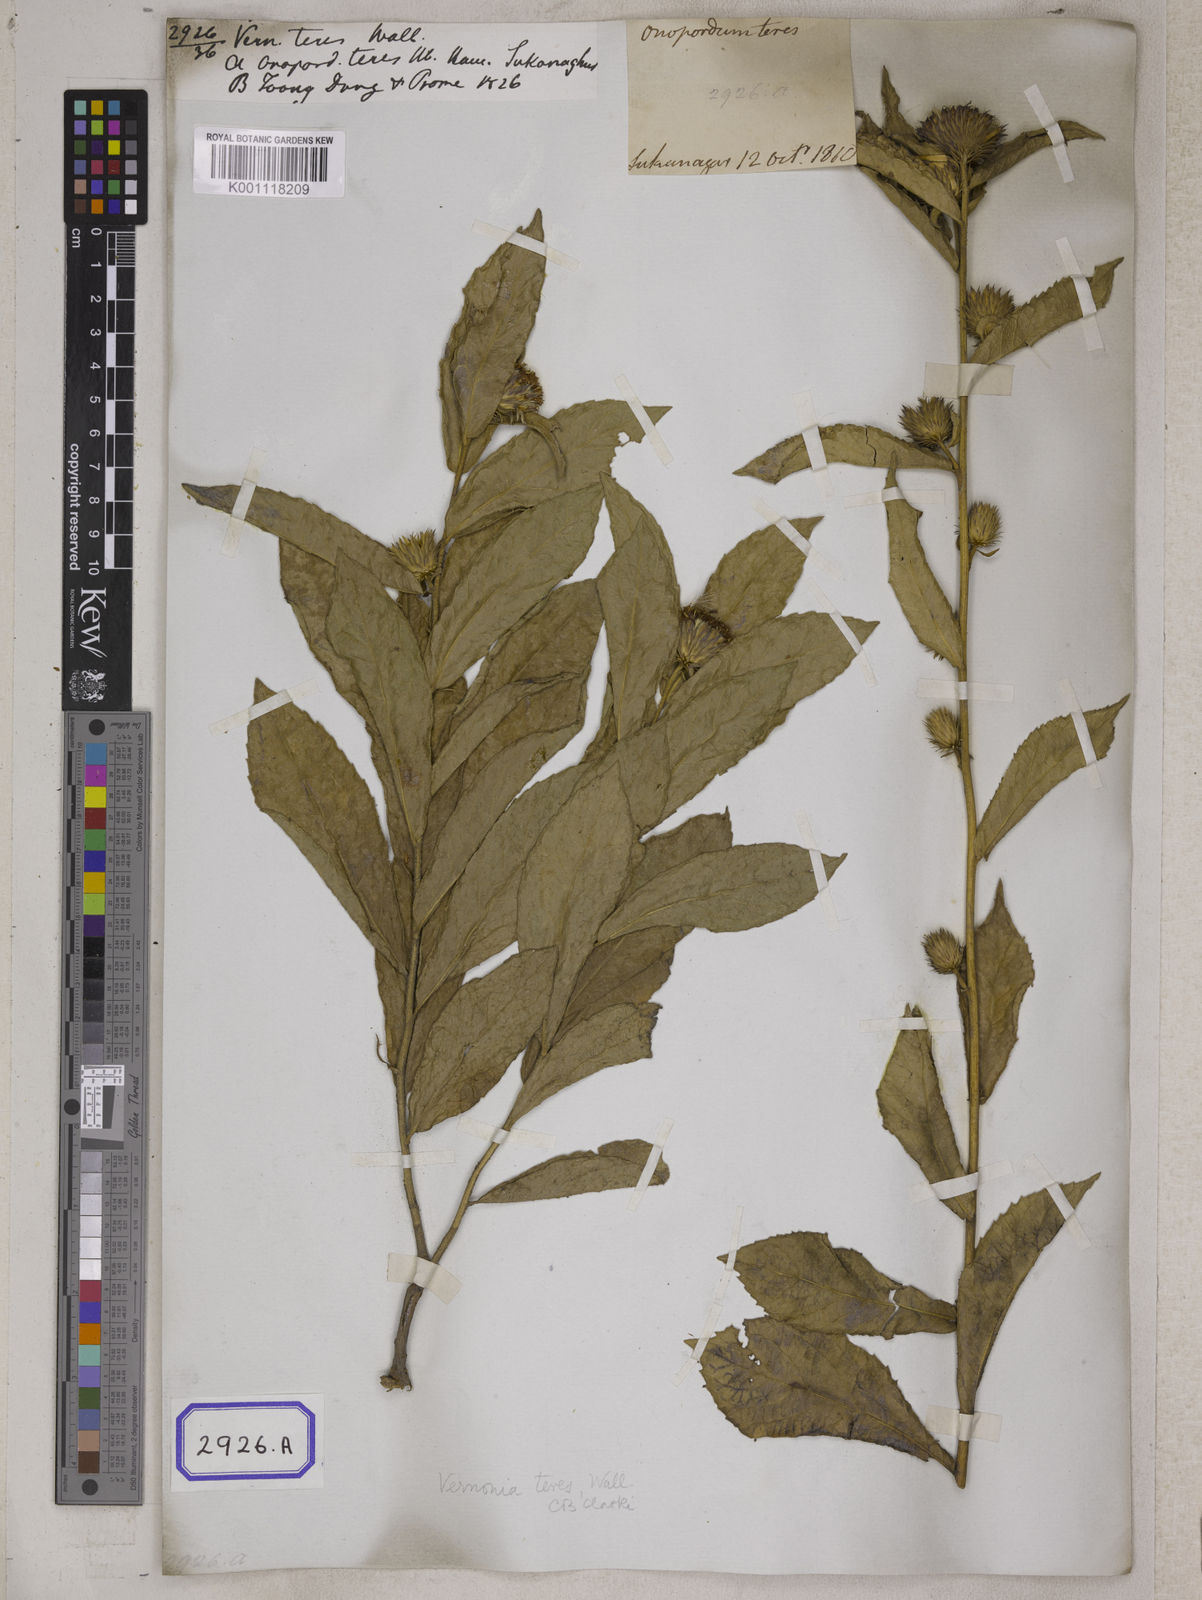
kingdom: Plantae
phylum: Tracheophyta
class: Magnoliopsida
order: Asterales
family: Asteraceae
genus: Acilepis
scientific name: Acilepis squarrosa
